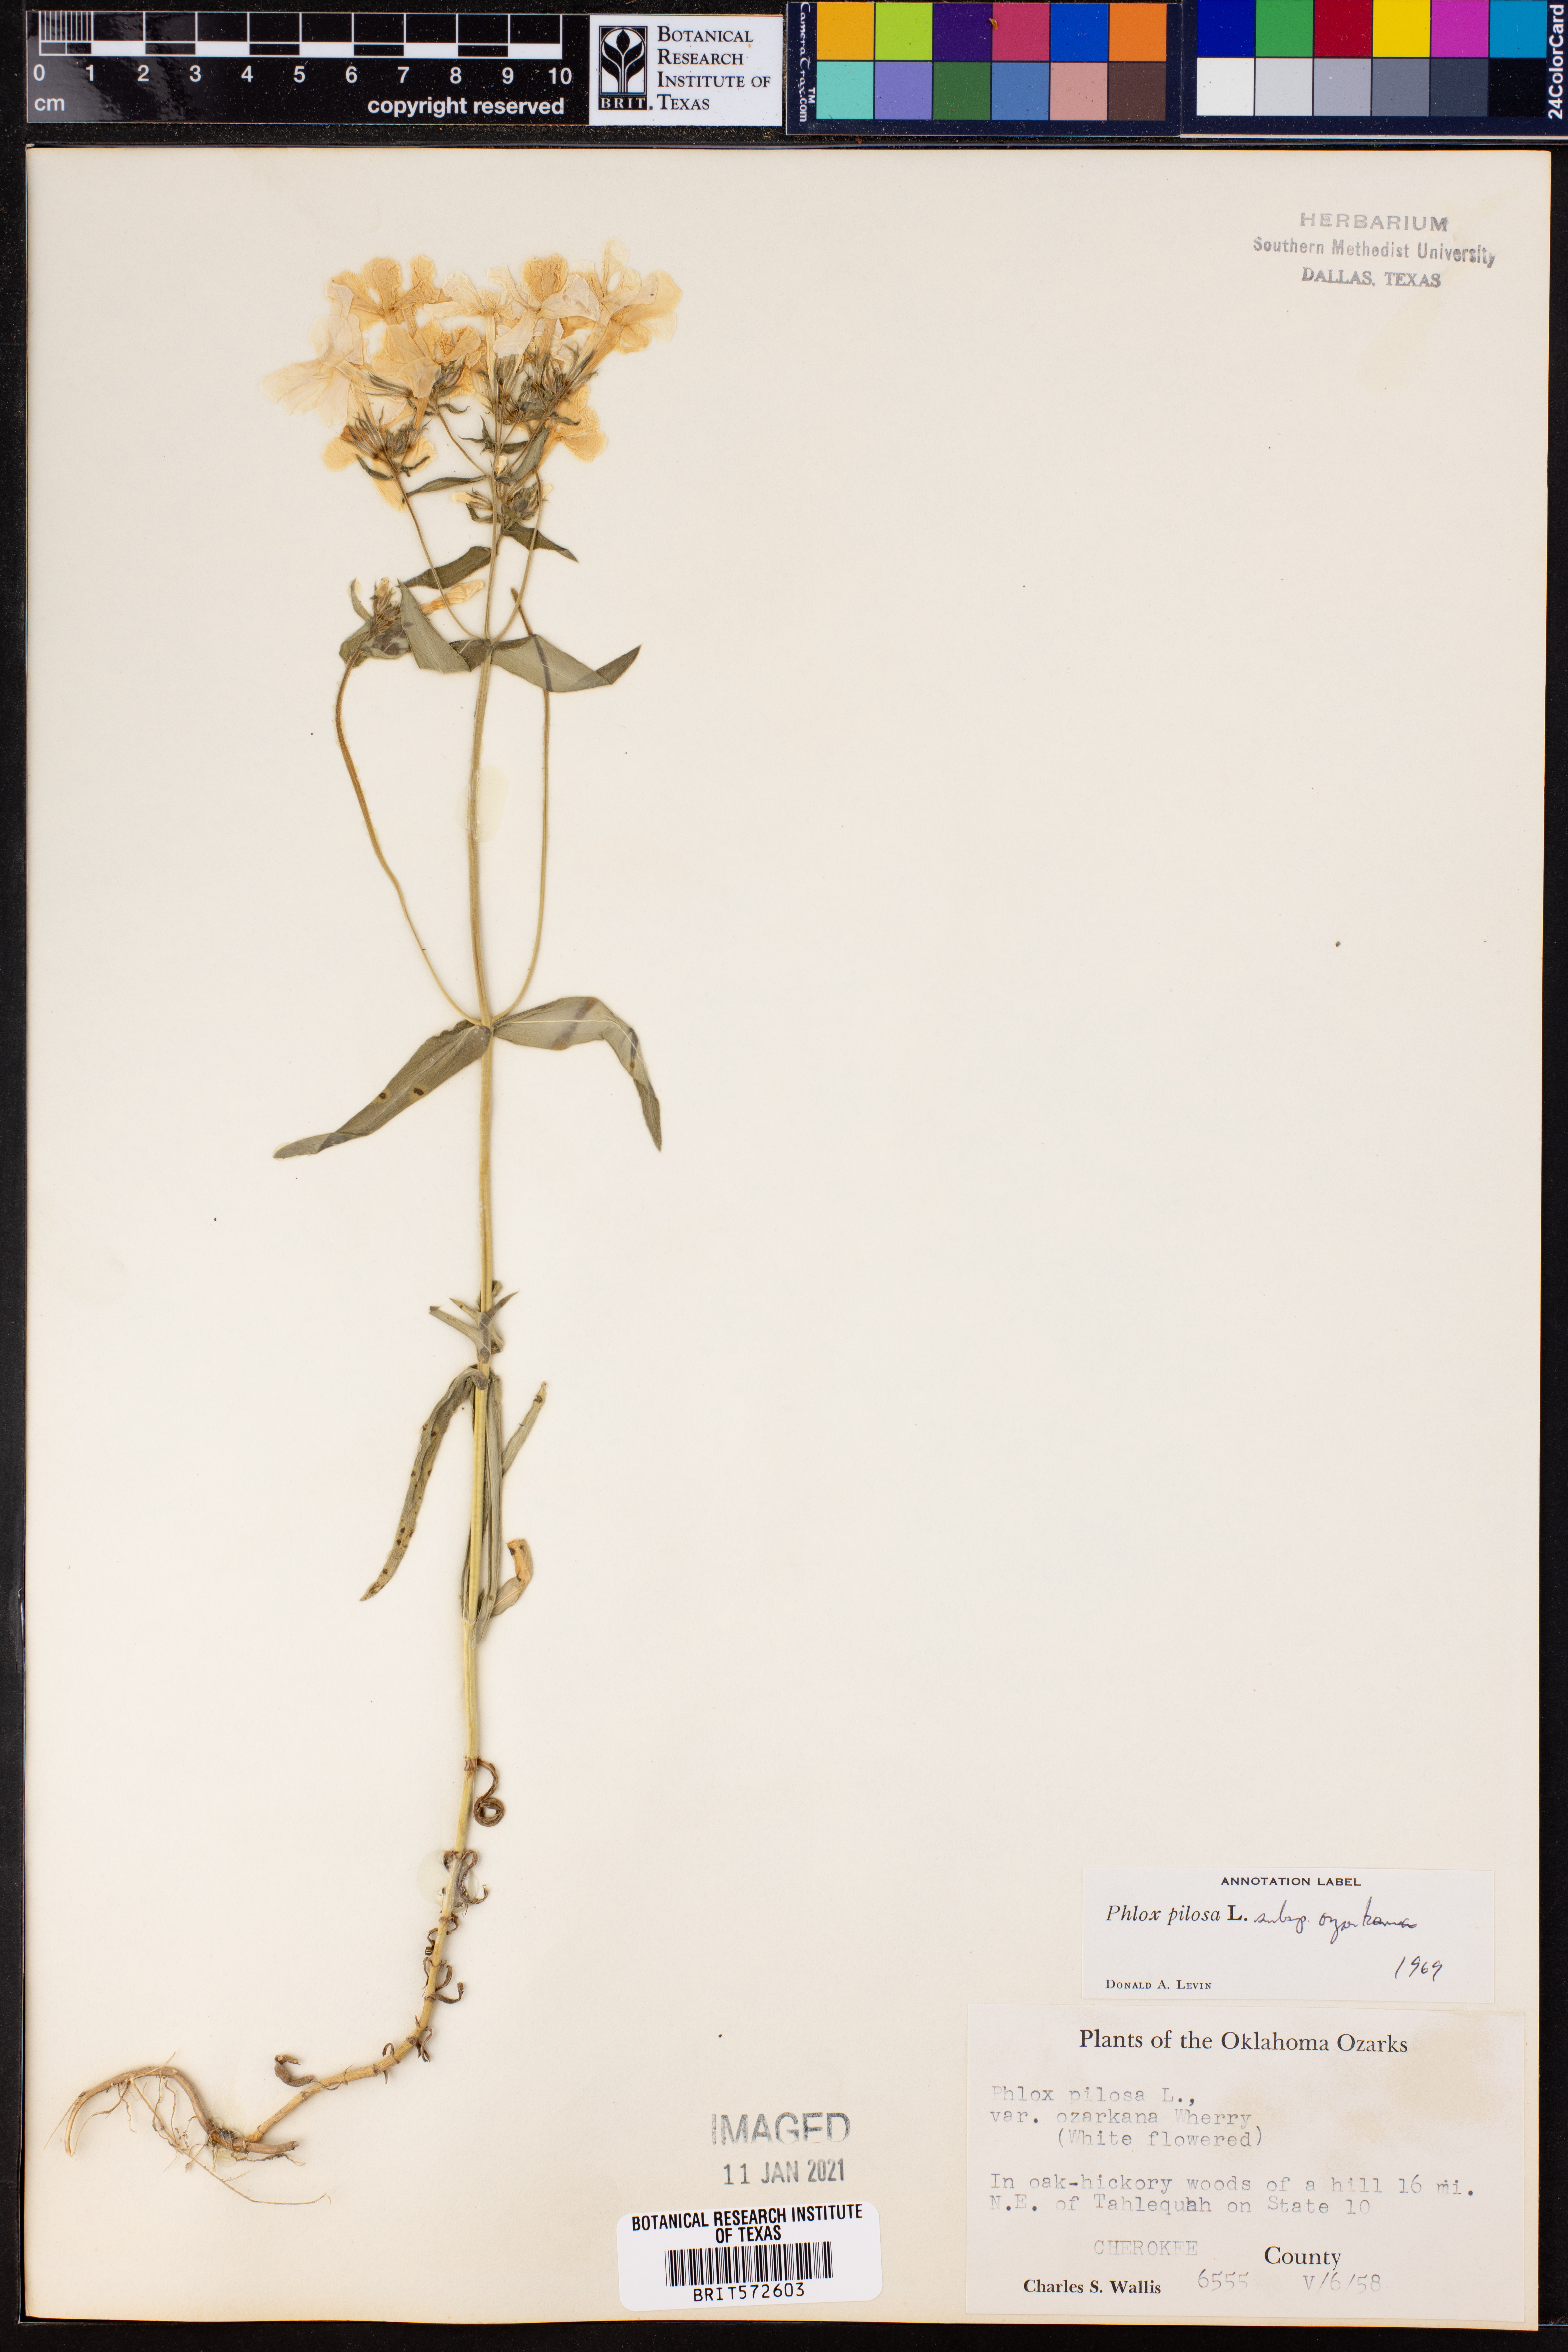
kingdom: Plantae
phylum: Tracheophyta
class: Magnoliopsida
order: Ericales
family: Polemoniaceae
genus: Phlox
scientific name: Phlox pilosa
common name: Prairie phlox
